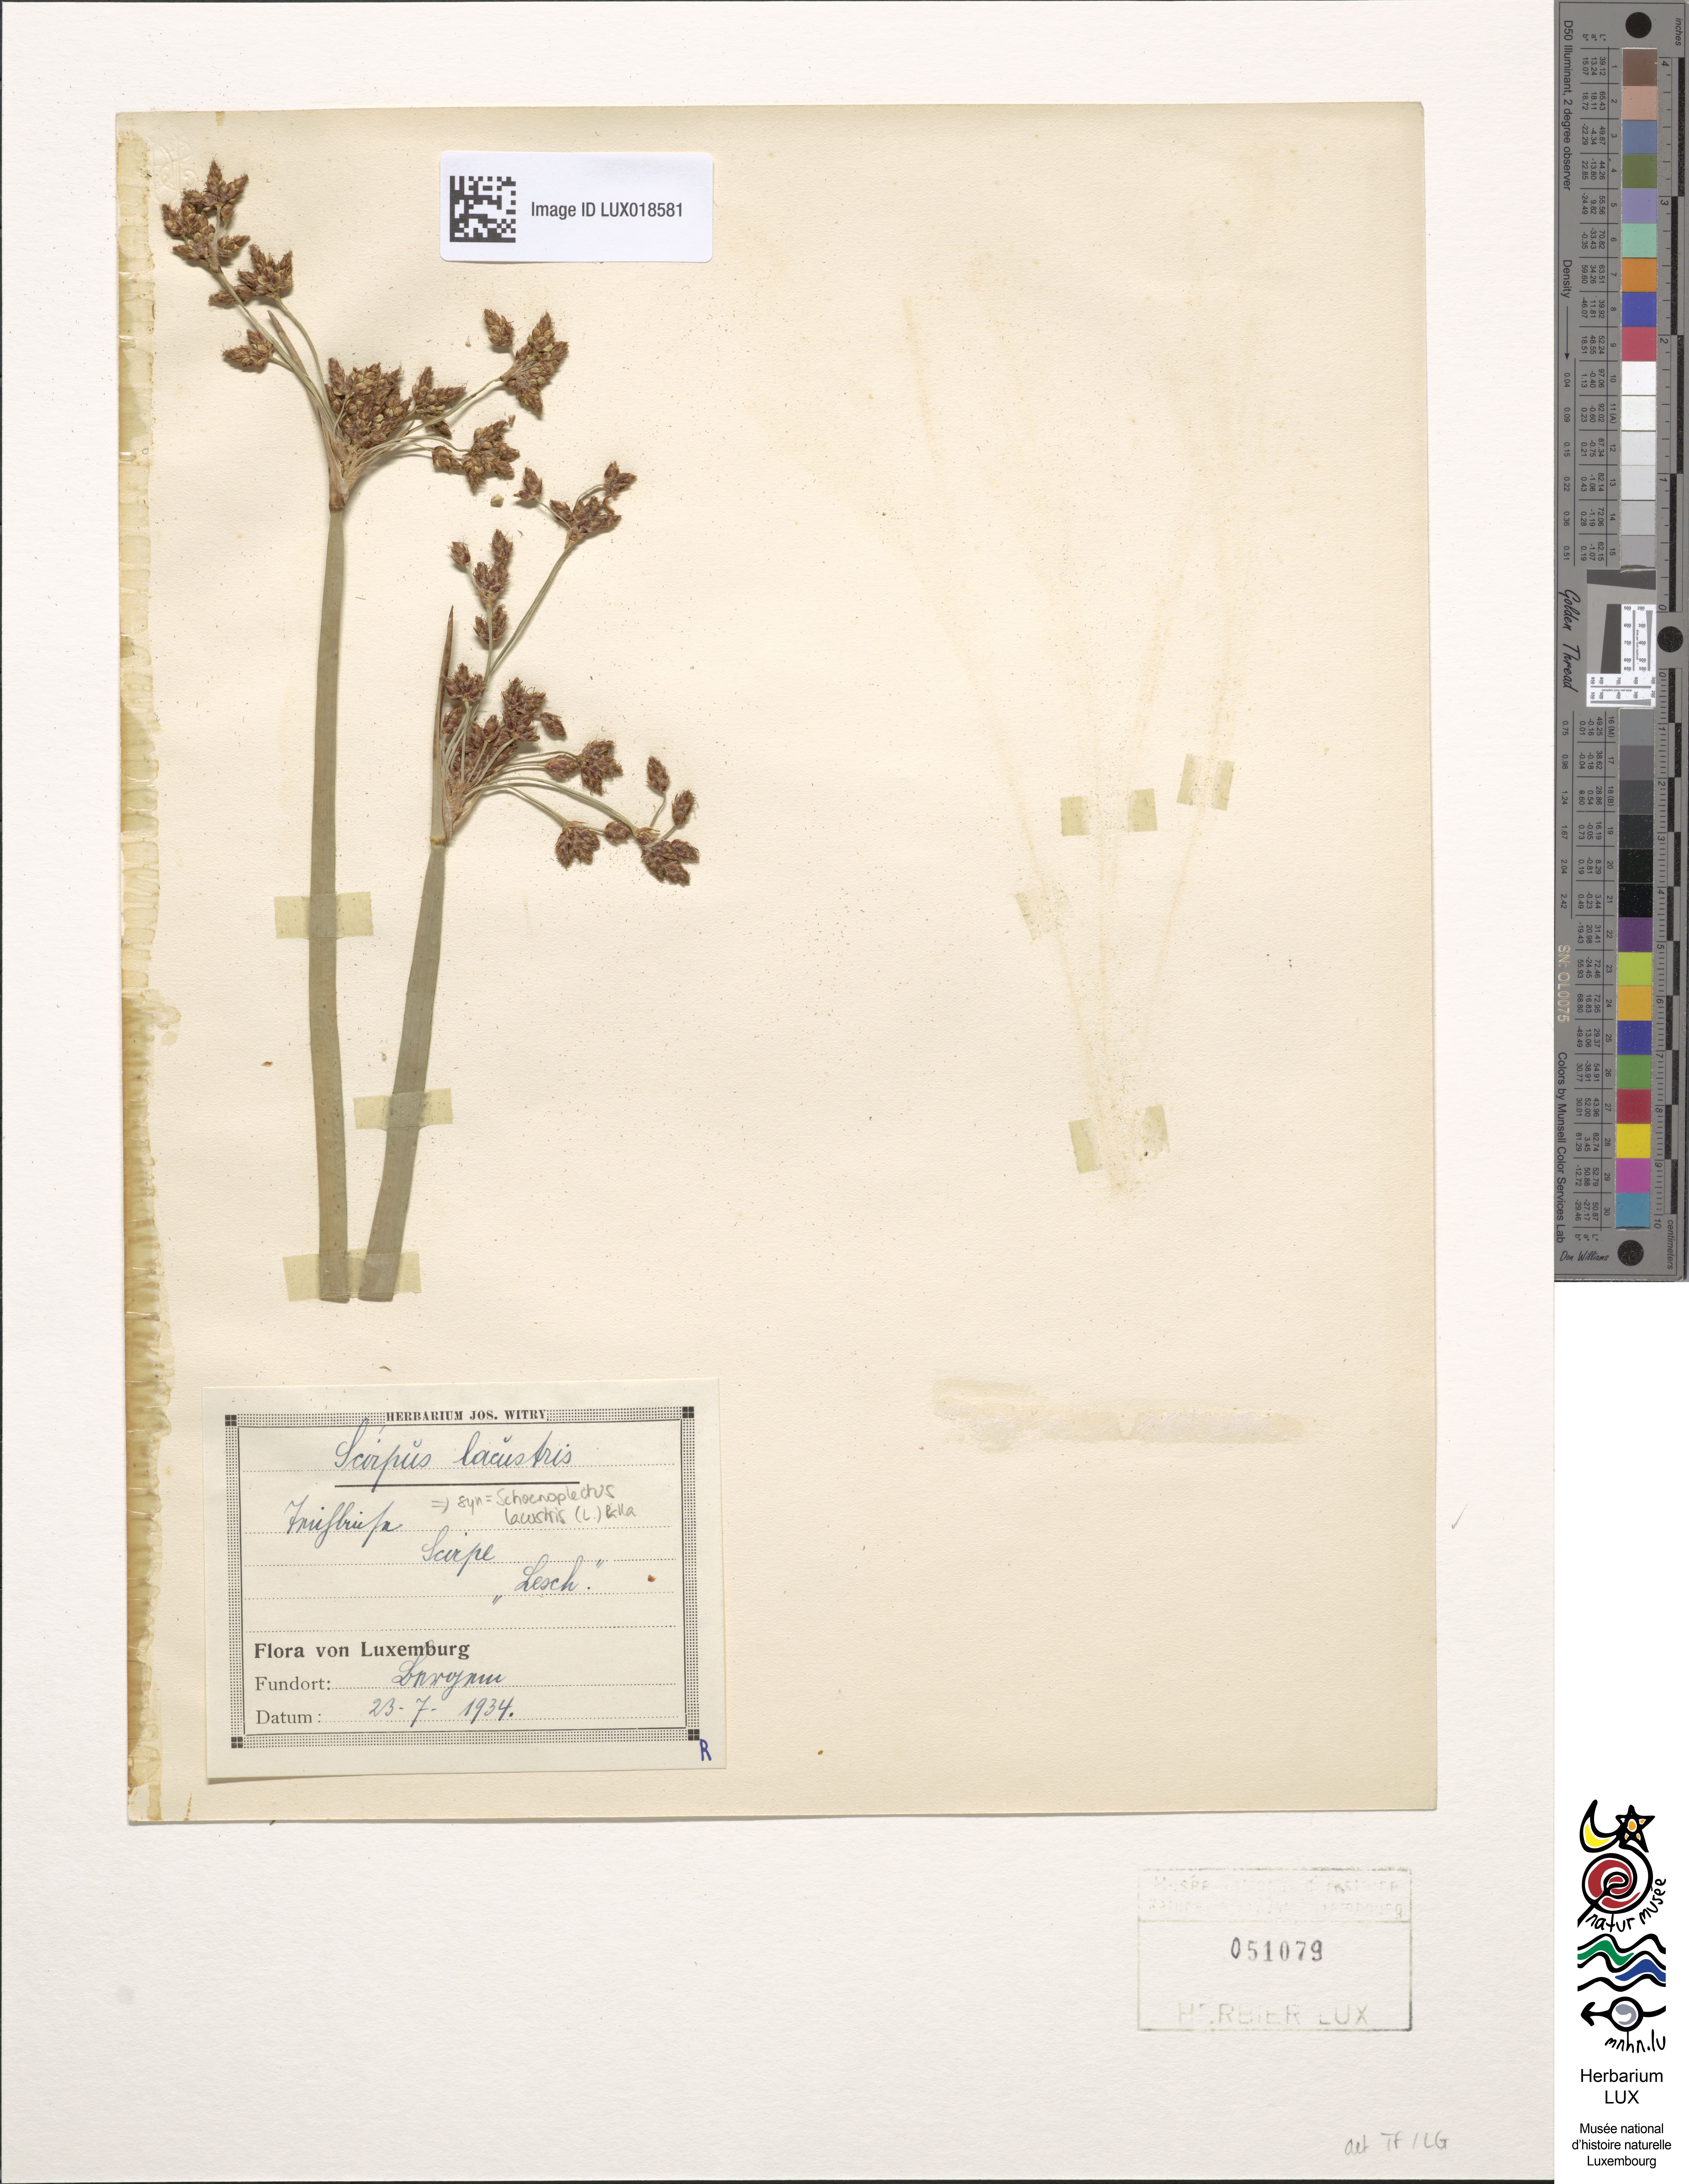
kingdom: Plantae
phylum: Tracheophyta
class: Liliopsida
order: Poales
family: Cyperaceae
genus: Schoenoplectus
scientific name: Schoenoplectus lacustris
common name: Common club-rush
